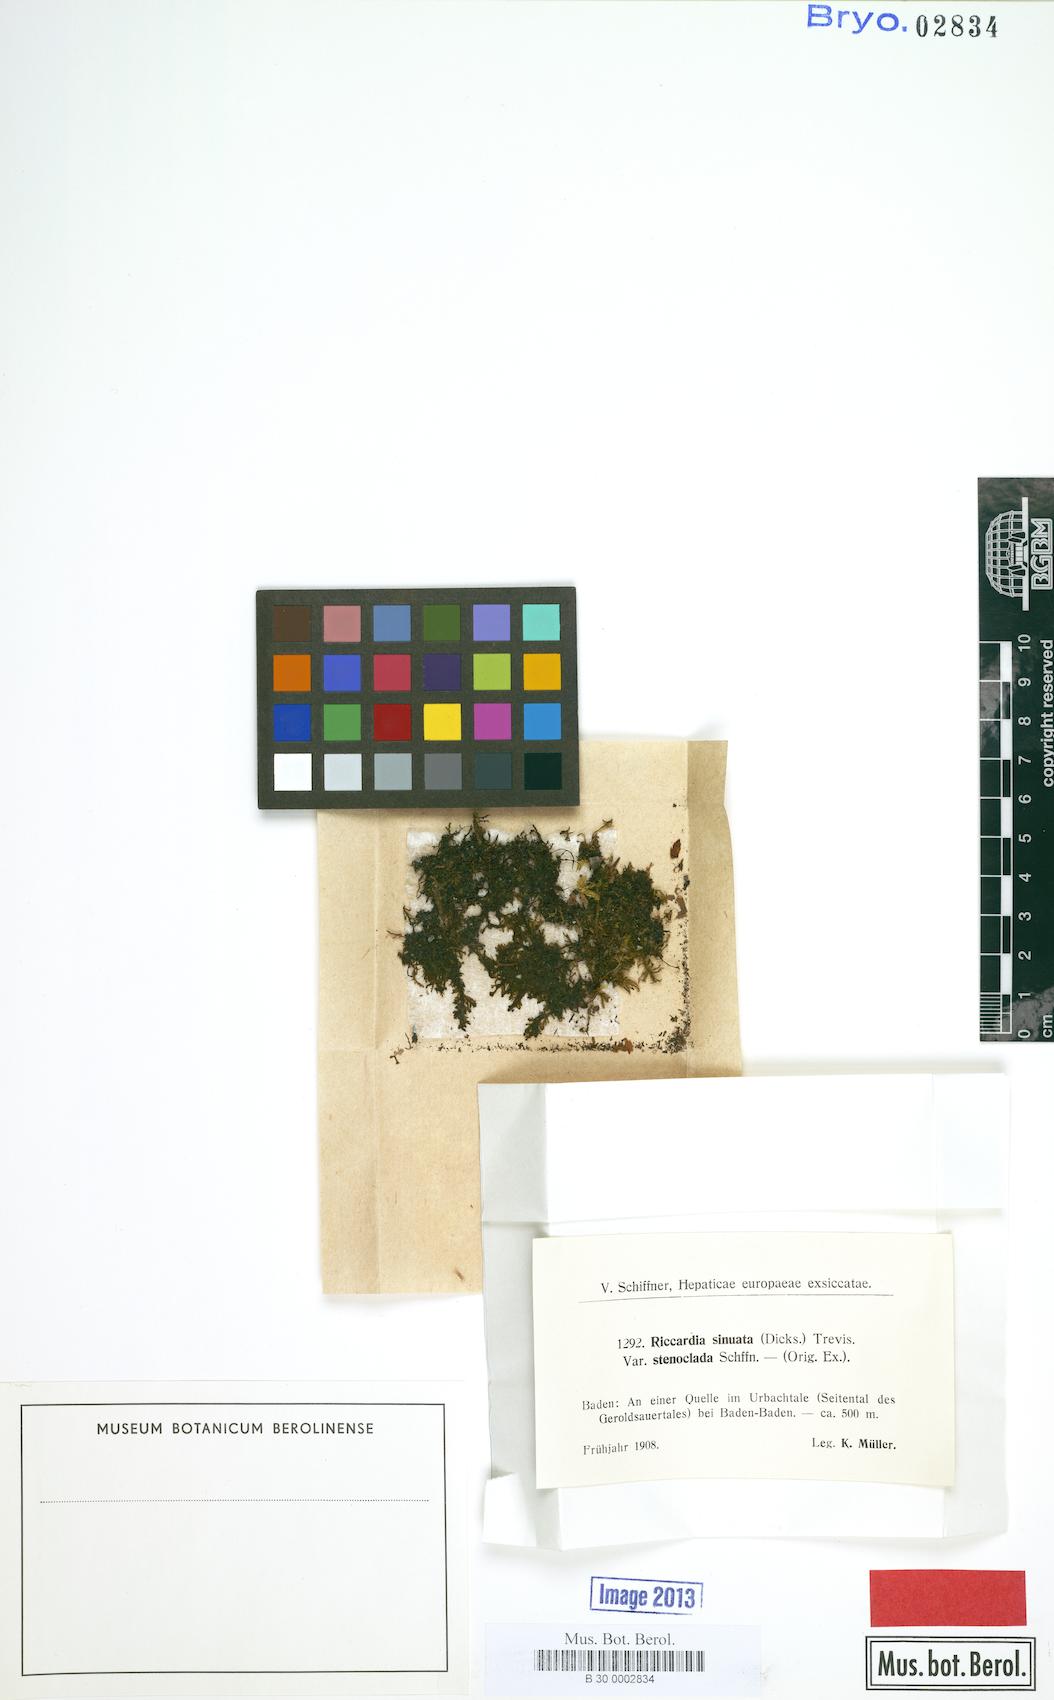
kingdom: Plantae
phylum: Marchantiophyta
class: Jungermanniopsida
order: Metzgeriales
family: Aneuraceae
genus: Riccardia
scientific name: Riccardia chamedryfolia
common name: Jagged germanderwort
